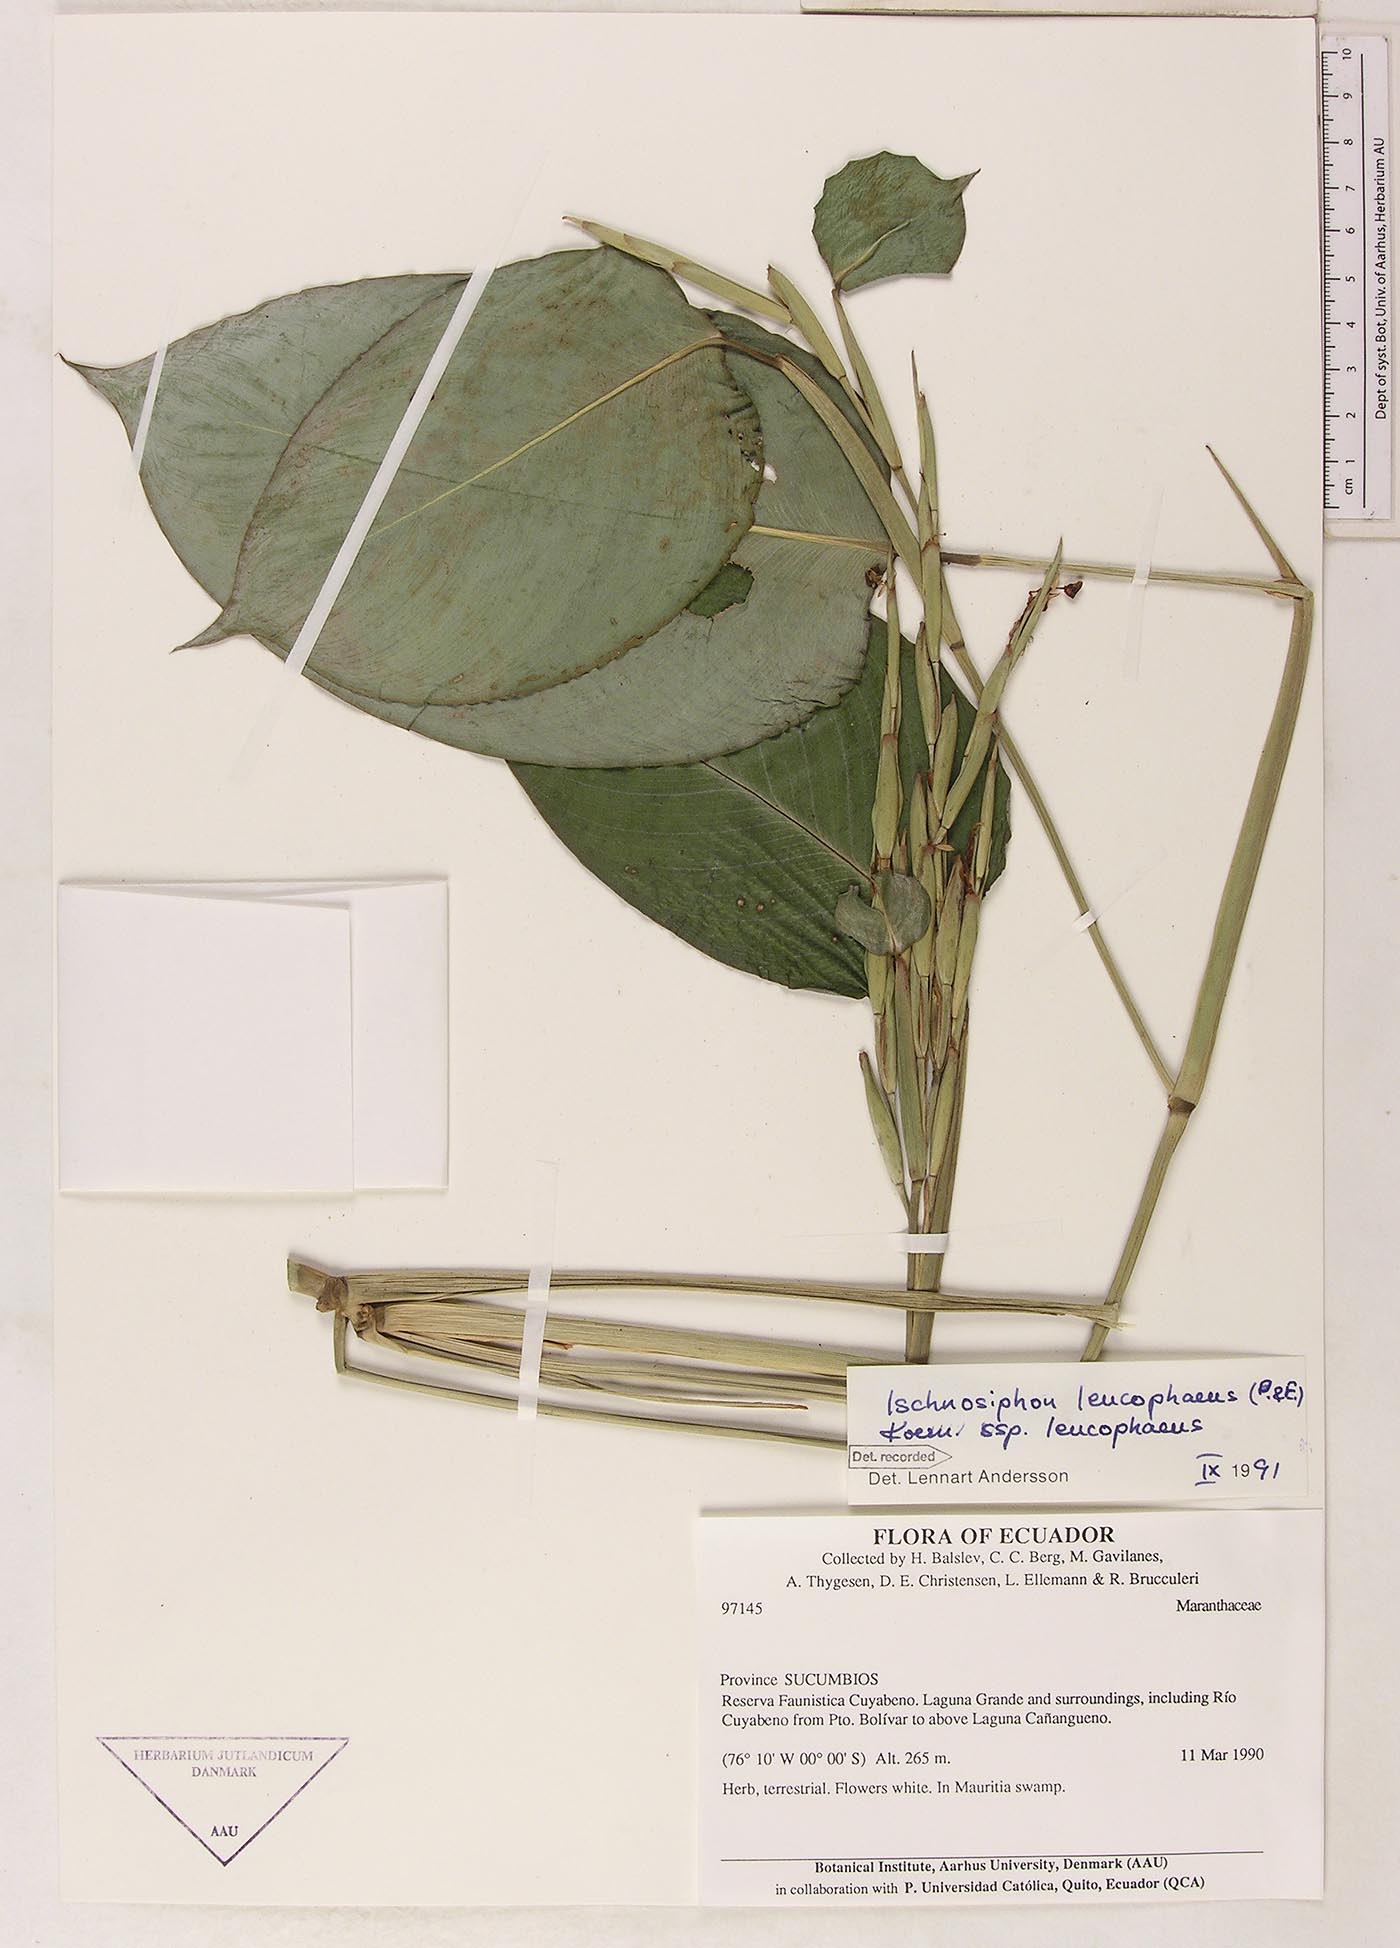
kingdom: Plantae
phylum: Tracheophyta
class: Liliopsida
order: Zingiberales
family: Marantaceae
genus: Ischnosiphon
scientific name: Ischnosiphon leucophaeus
